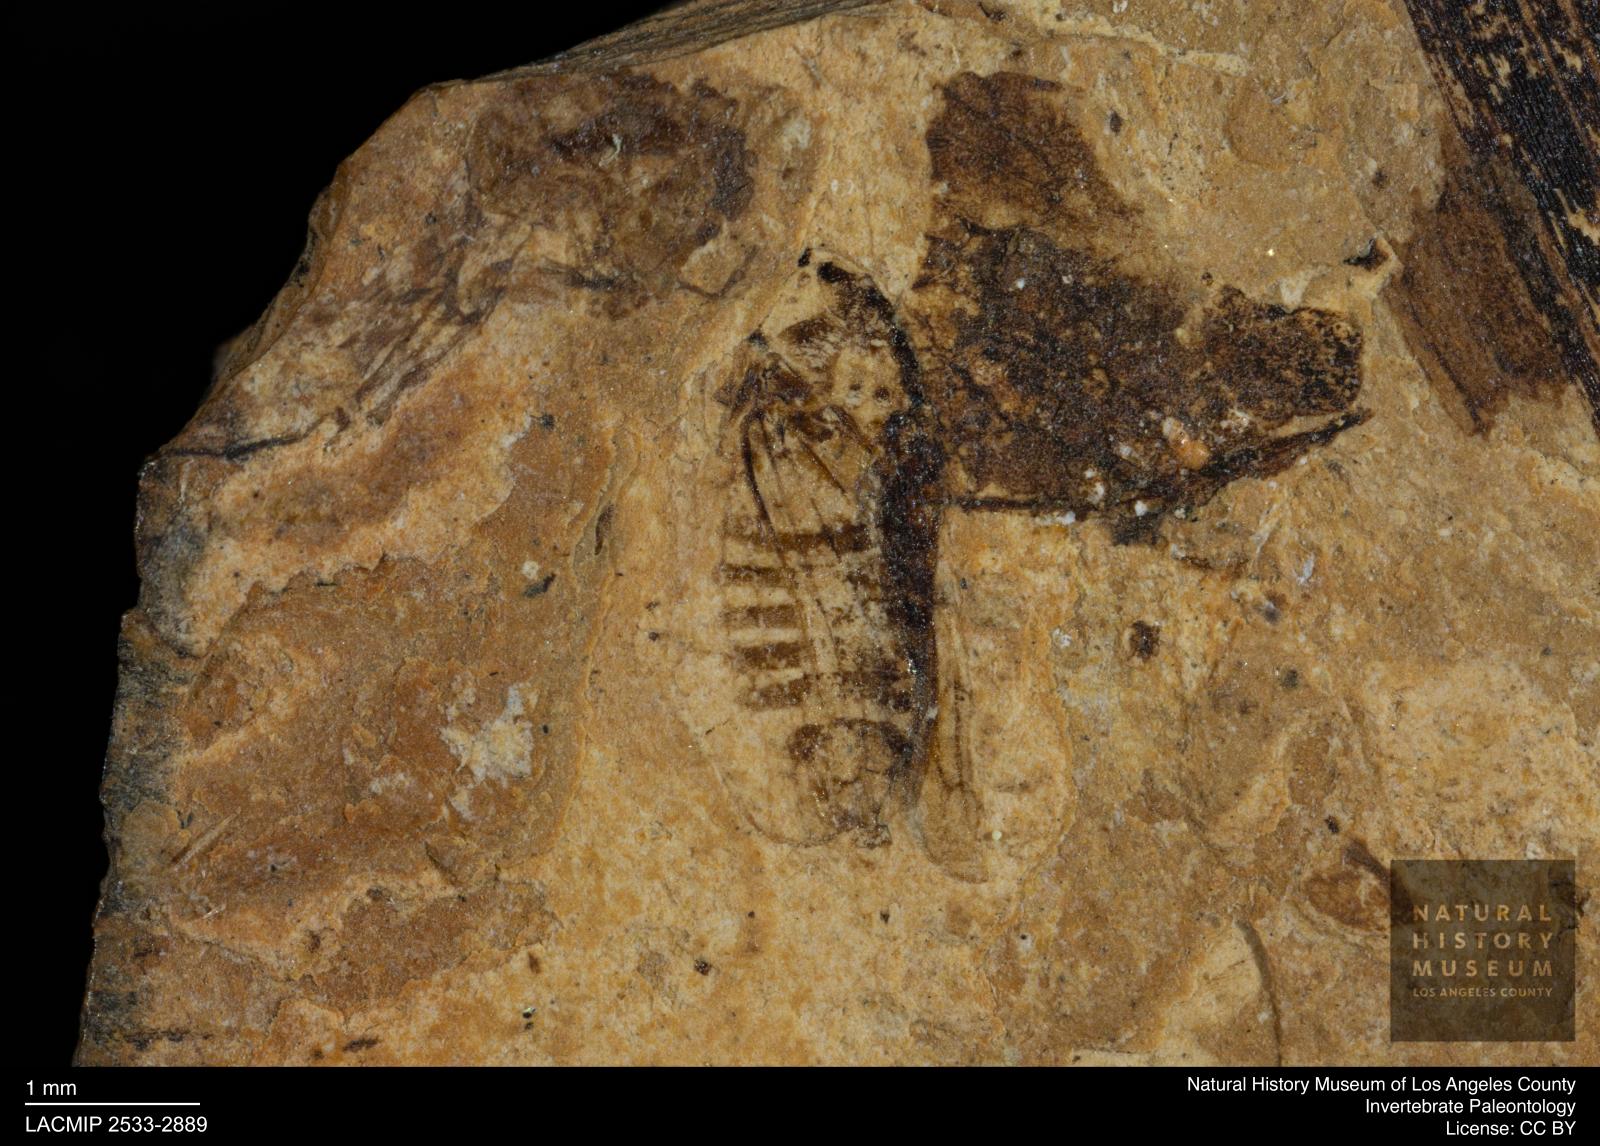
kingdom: Animalia
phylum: Arthropoda
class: Insecta
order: Hemiptera
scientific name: Hemiptera
